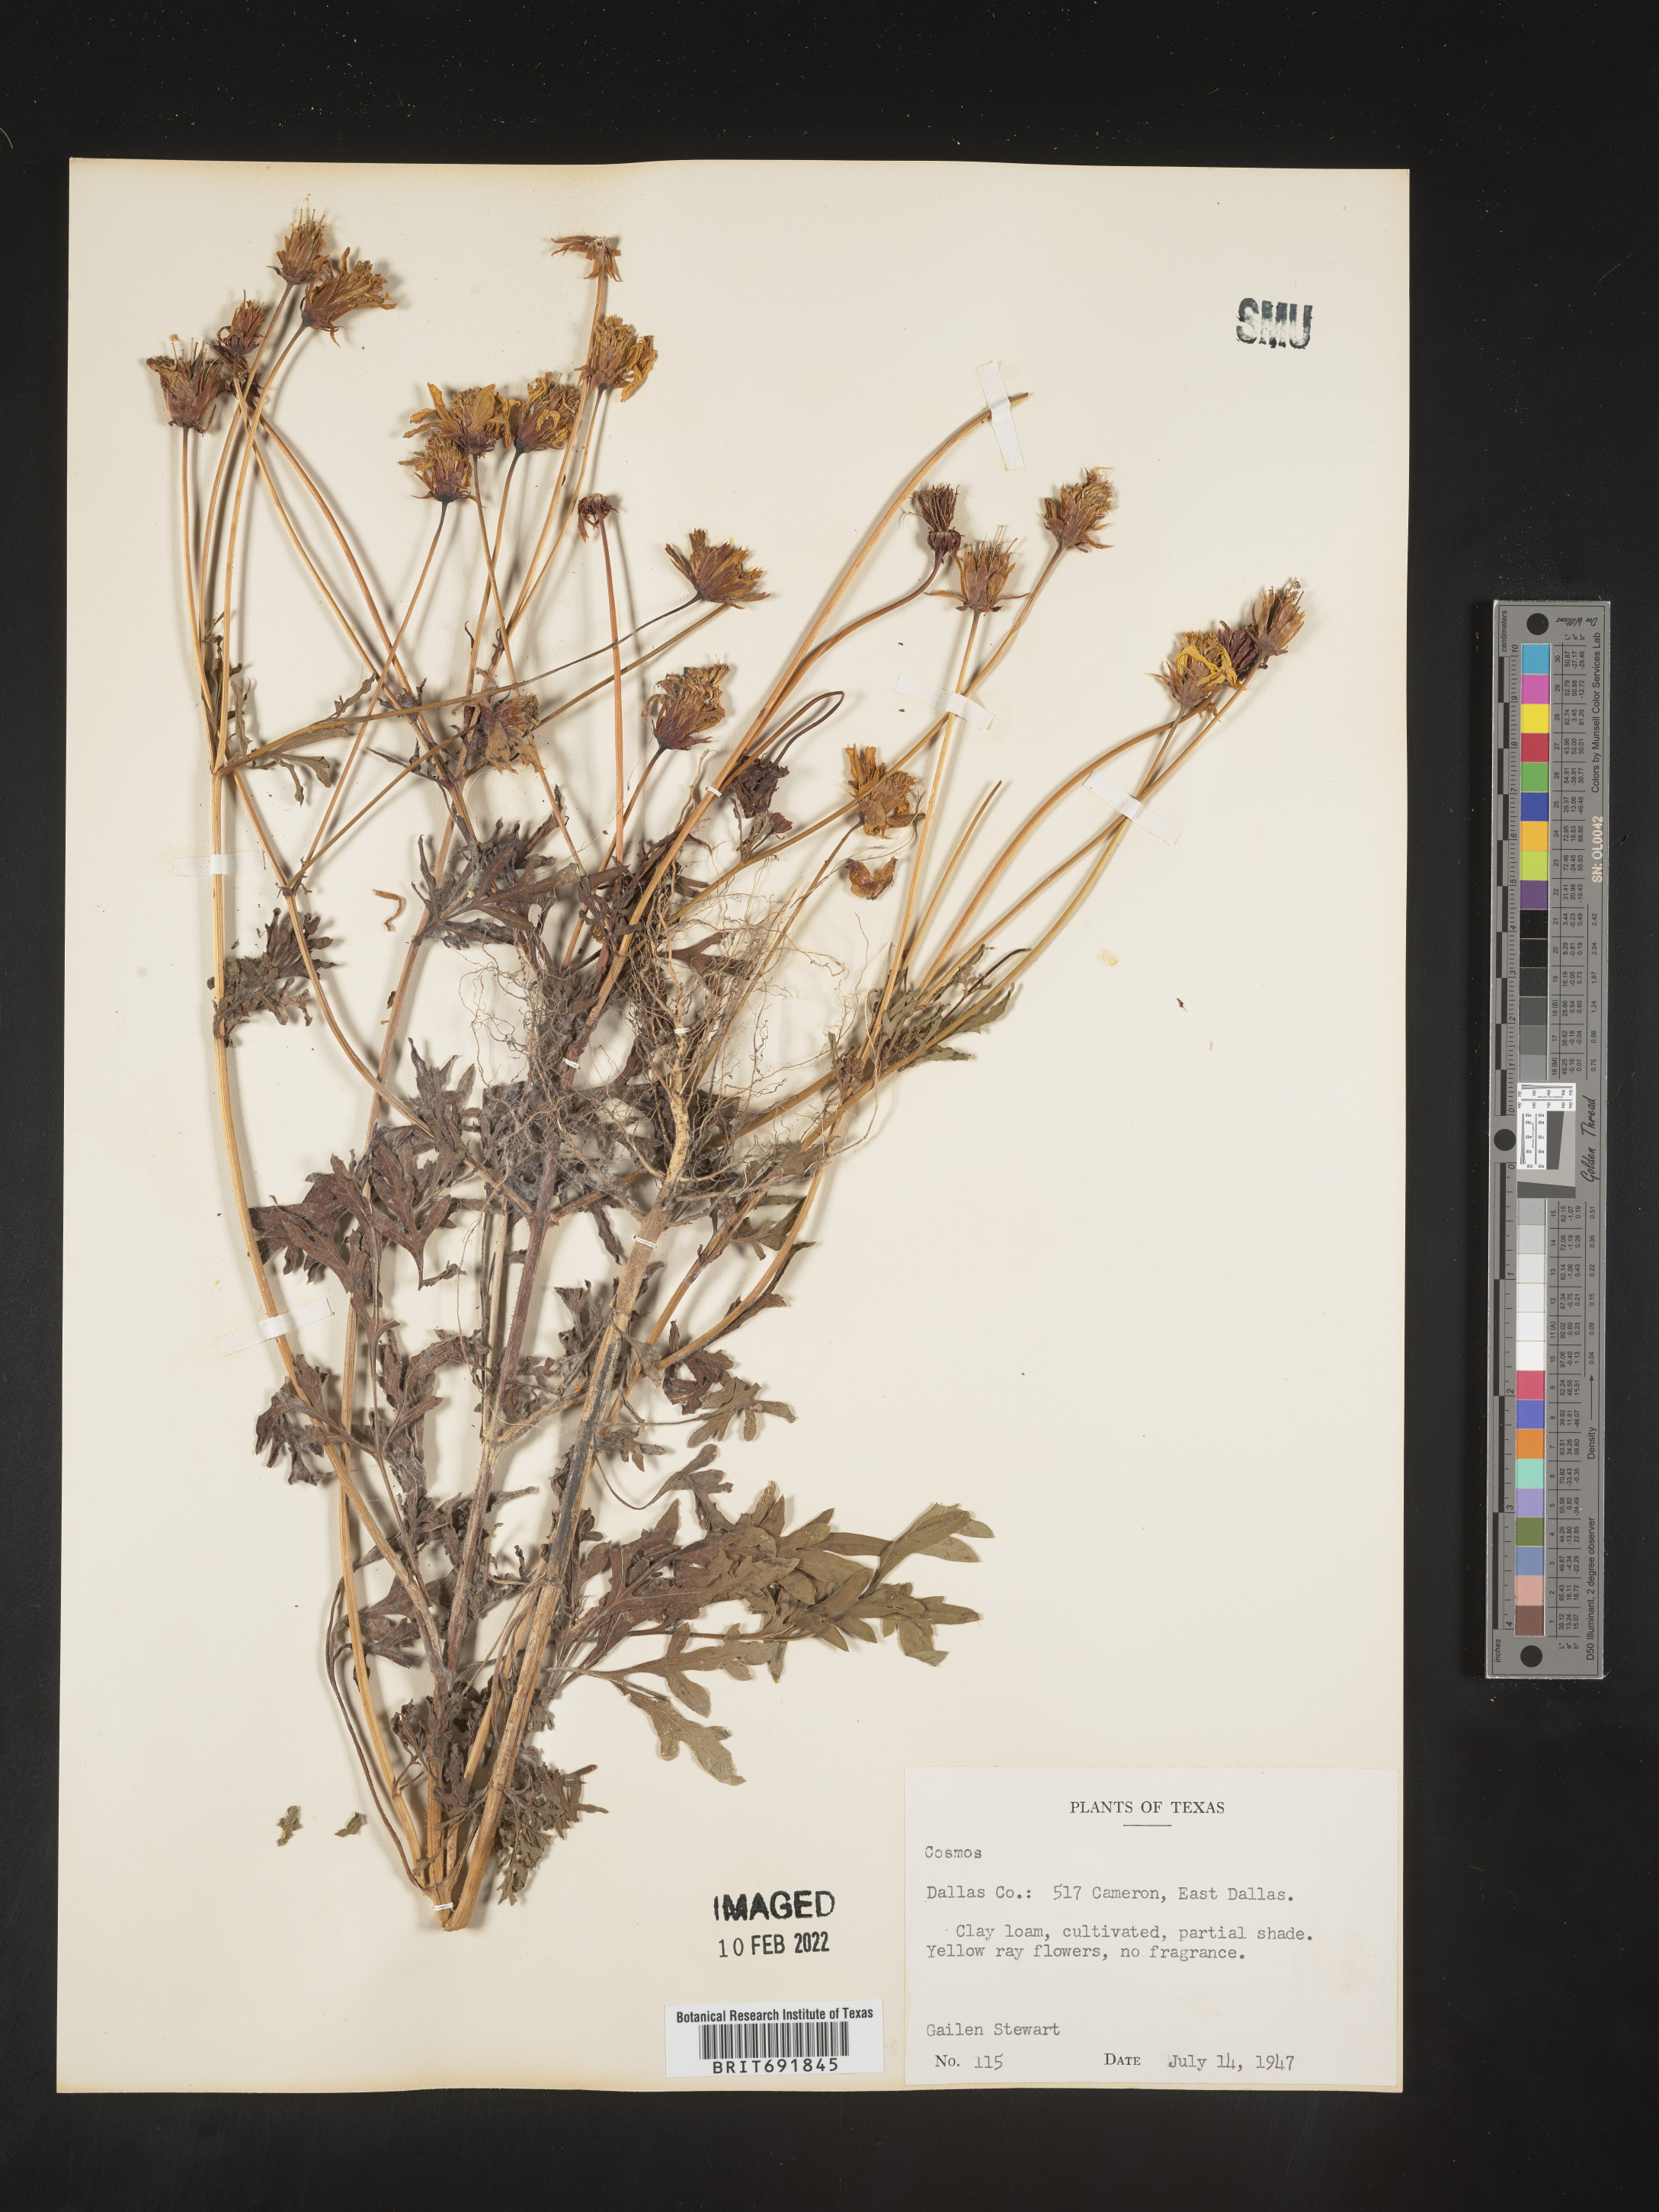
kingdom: Plantae
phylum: Tracheophyta
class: Magnoliopsida
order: Asterales
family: Asteraceae
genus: Cosmos
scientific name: Cosmos
